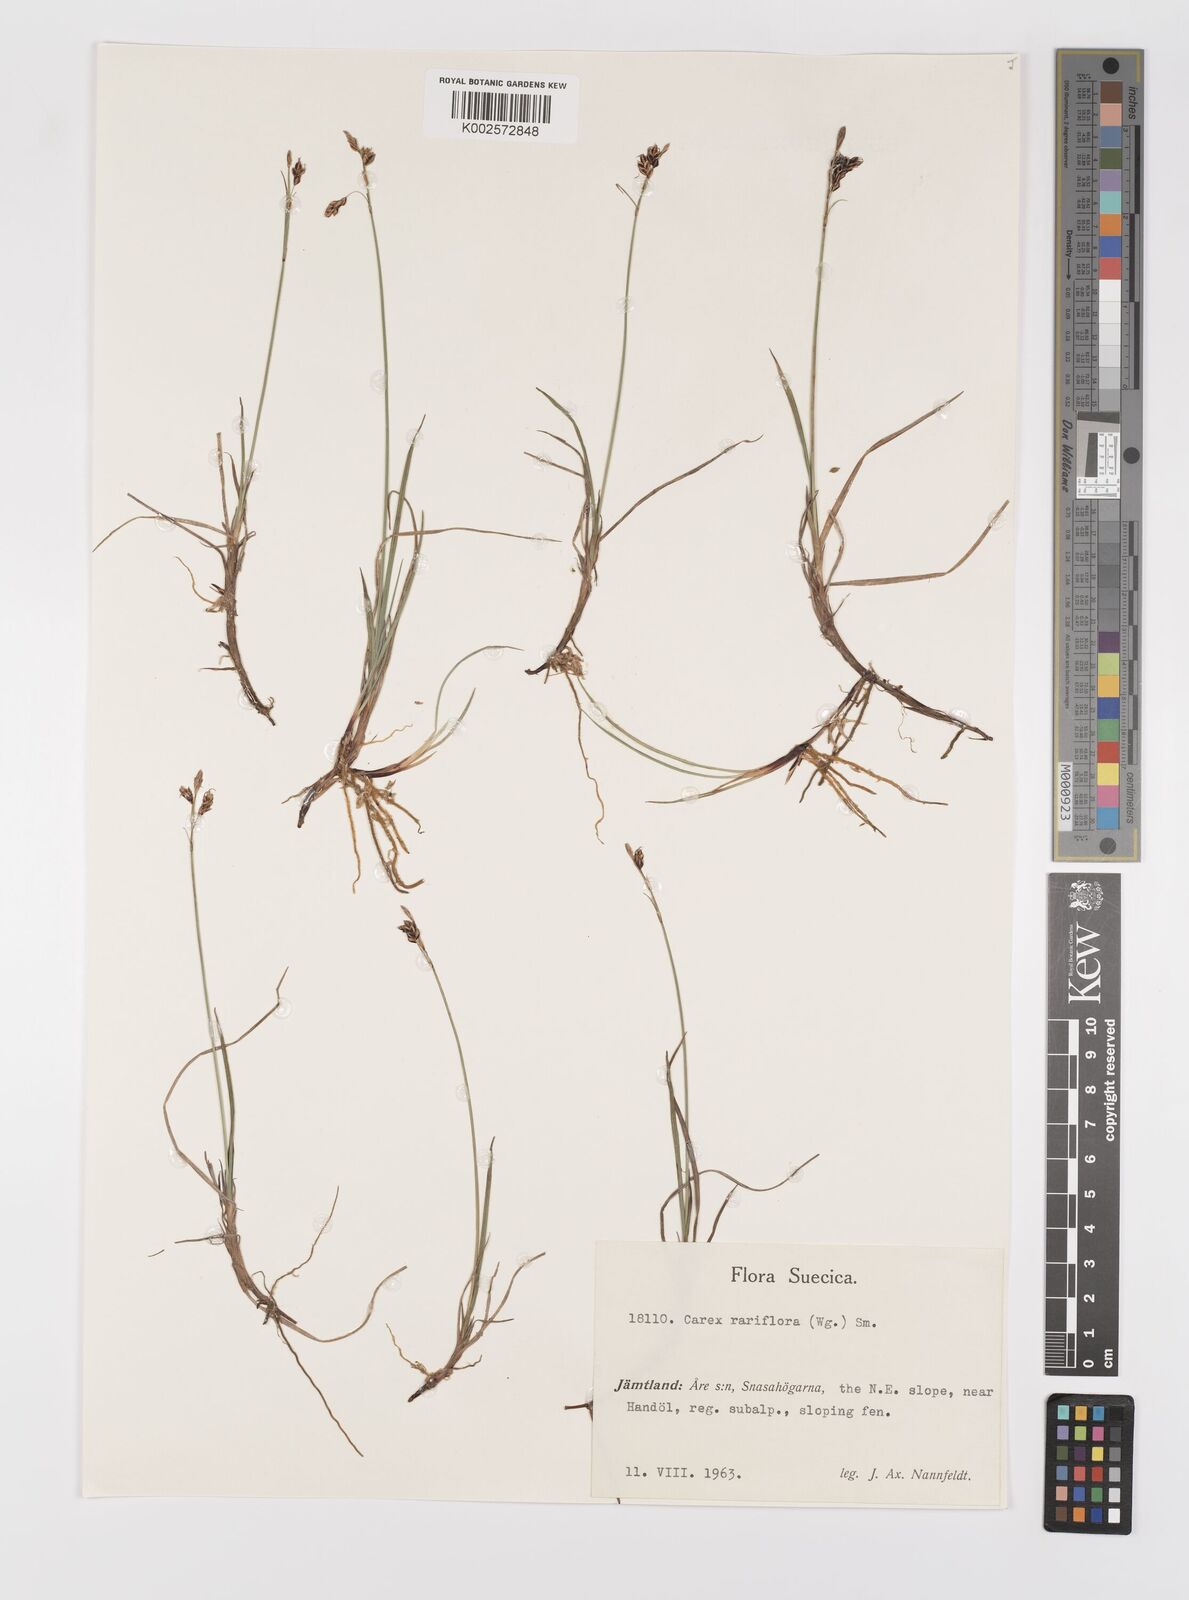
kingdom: Plantae
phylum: Tracheophyta
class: Liliopsida
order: Poales
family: Cyperaceae
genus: Carex
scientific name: Carex rariflora
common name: Loose-flowered alpine sedge
